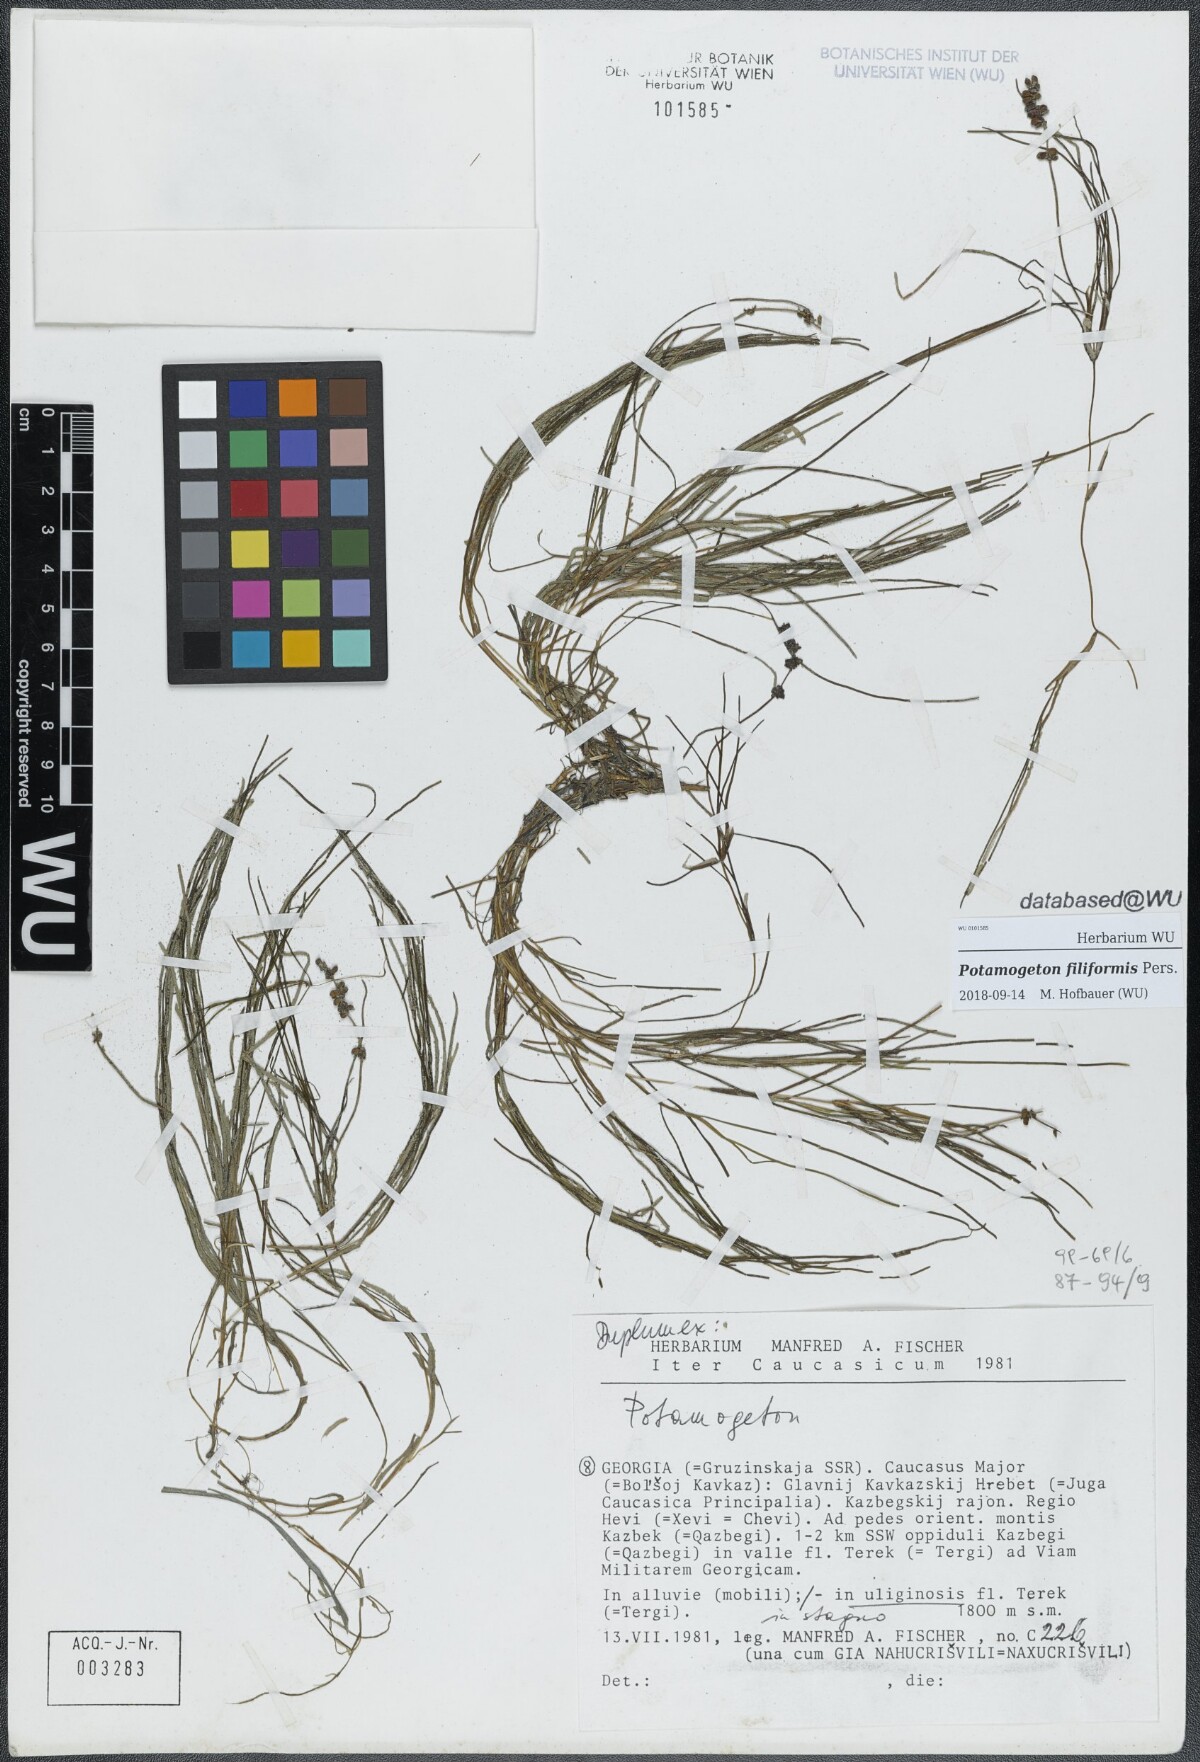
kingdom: Plantae
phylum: Tracheophyta
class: Liliopsida
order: Alismatales
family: Potamogetonaceae
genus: Stuckenia
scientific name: Stuckenia filiformis
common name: Alpine thread-leaved pondweed
